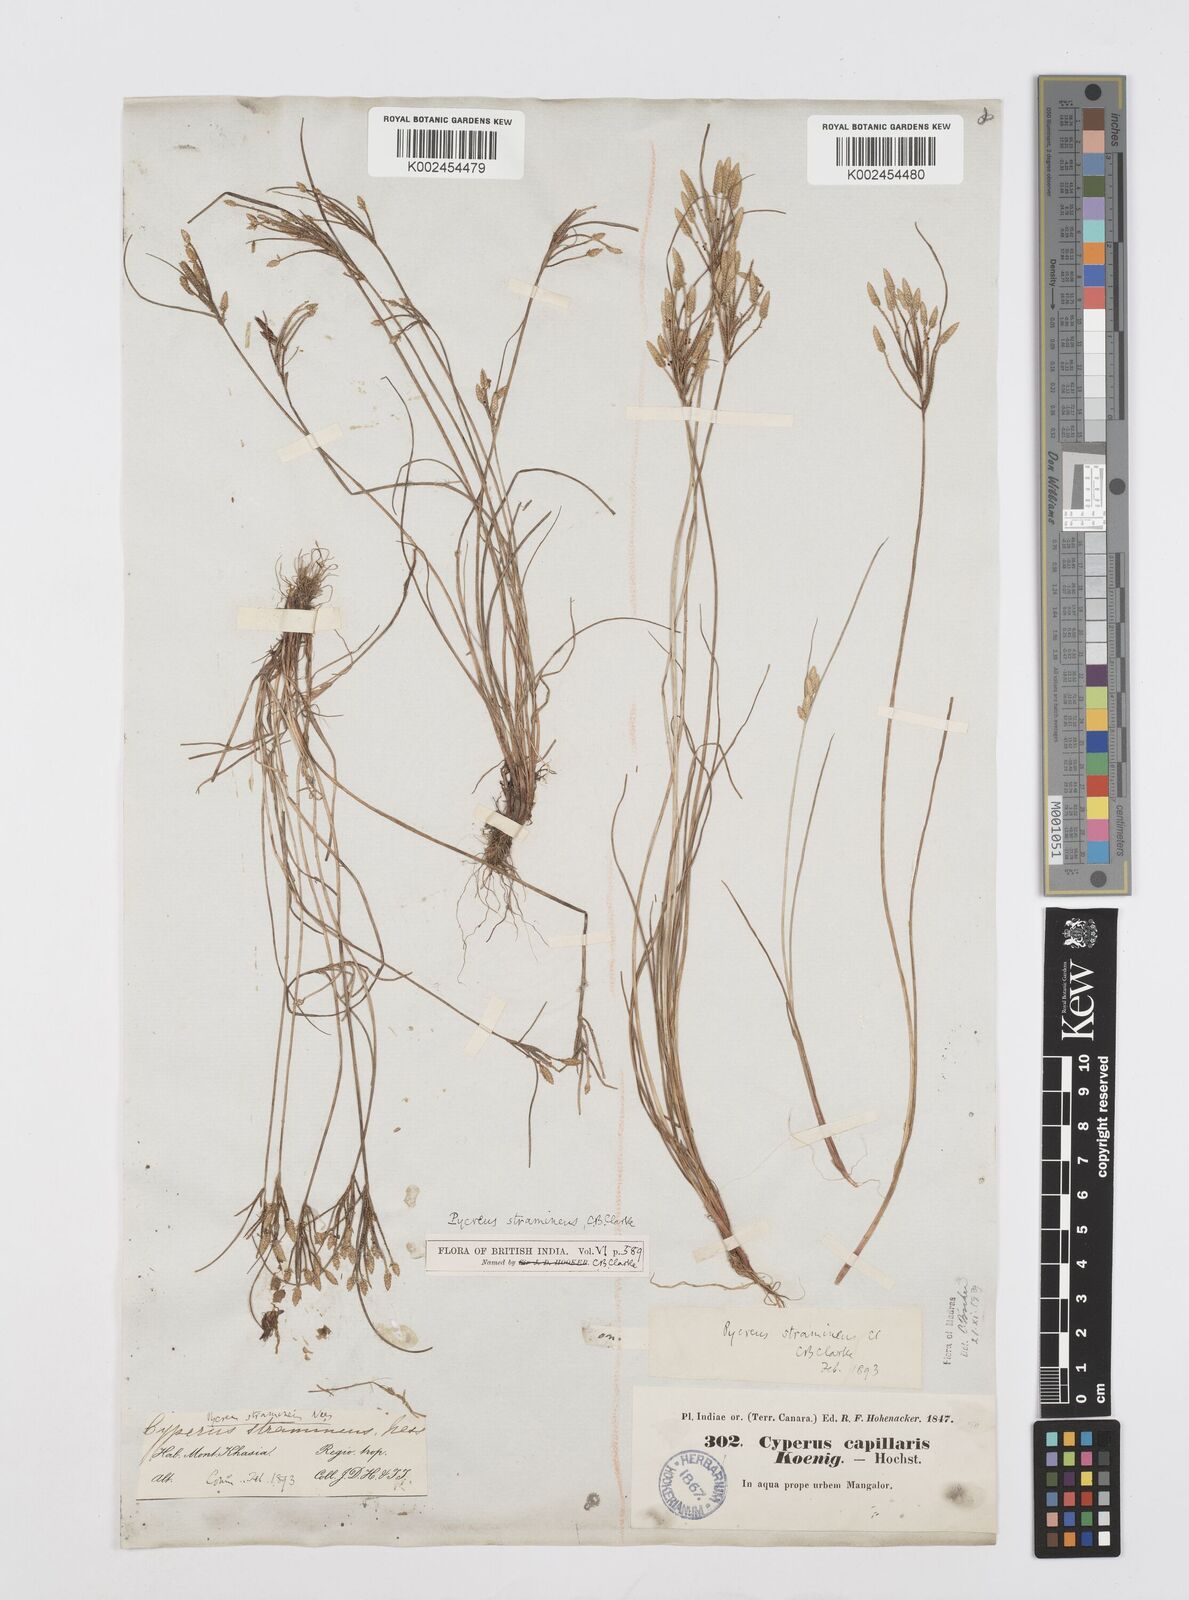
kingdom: Plantae
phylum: Tracheophyta
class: Liliopsida
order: Poales
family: Cyperaceae
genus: Cyperus
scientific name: Cyperus substramineus
